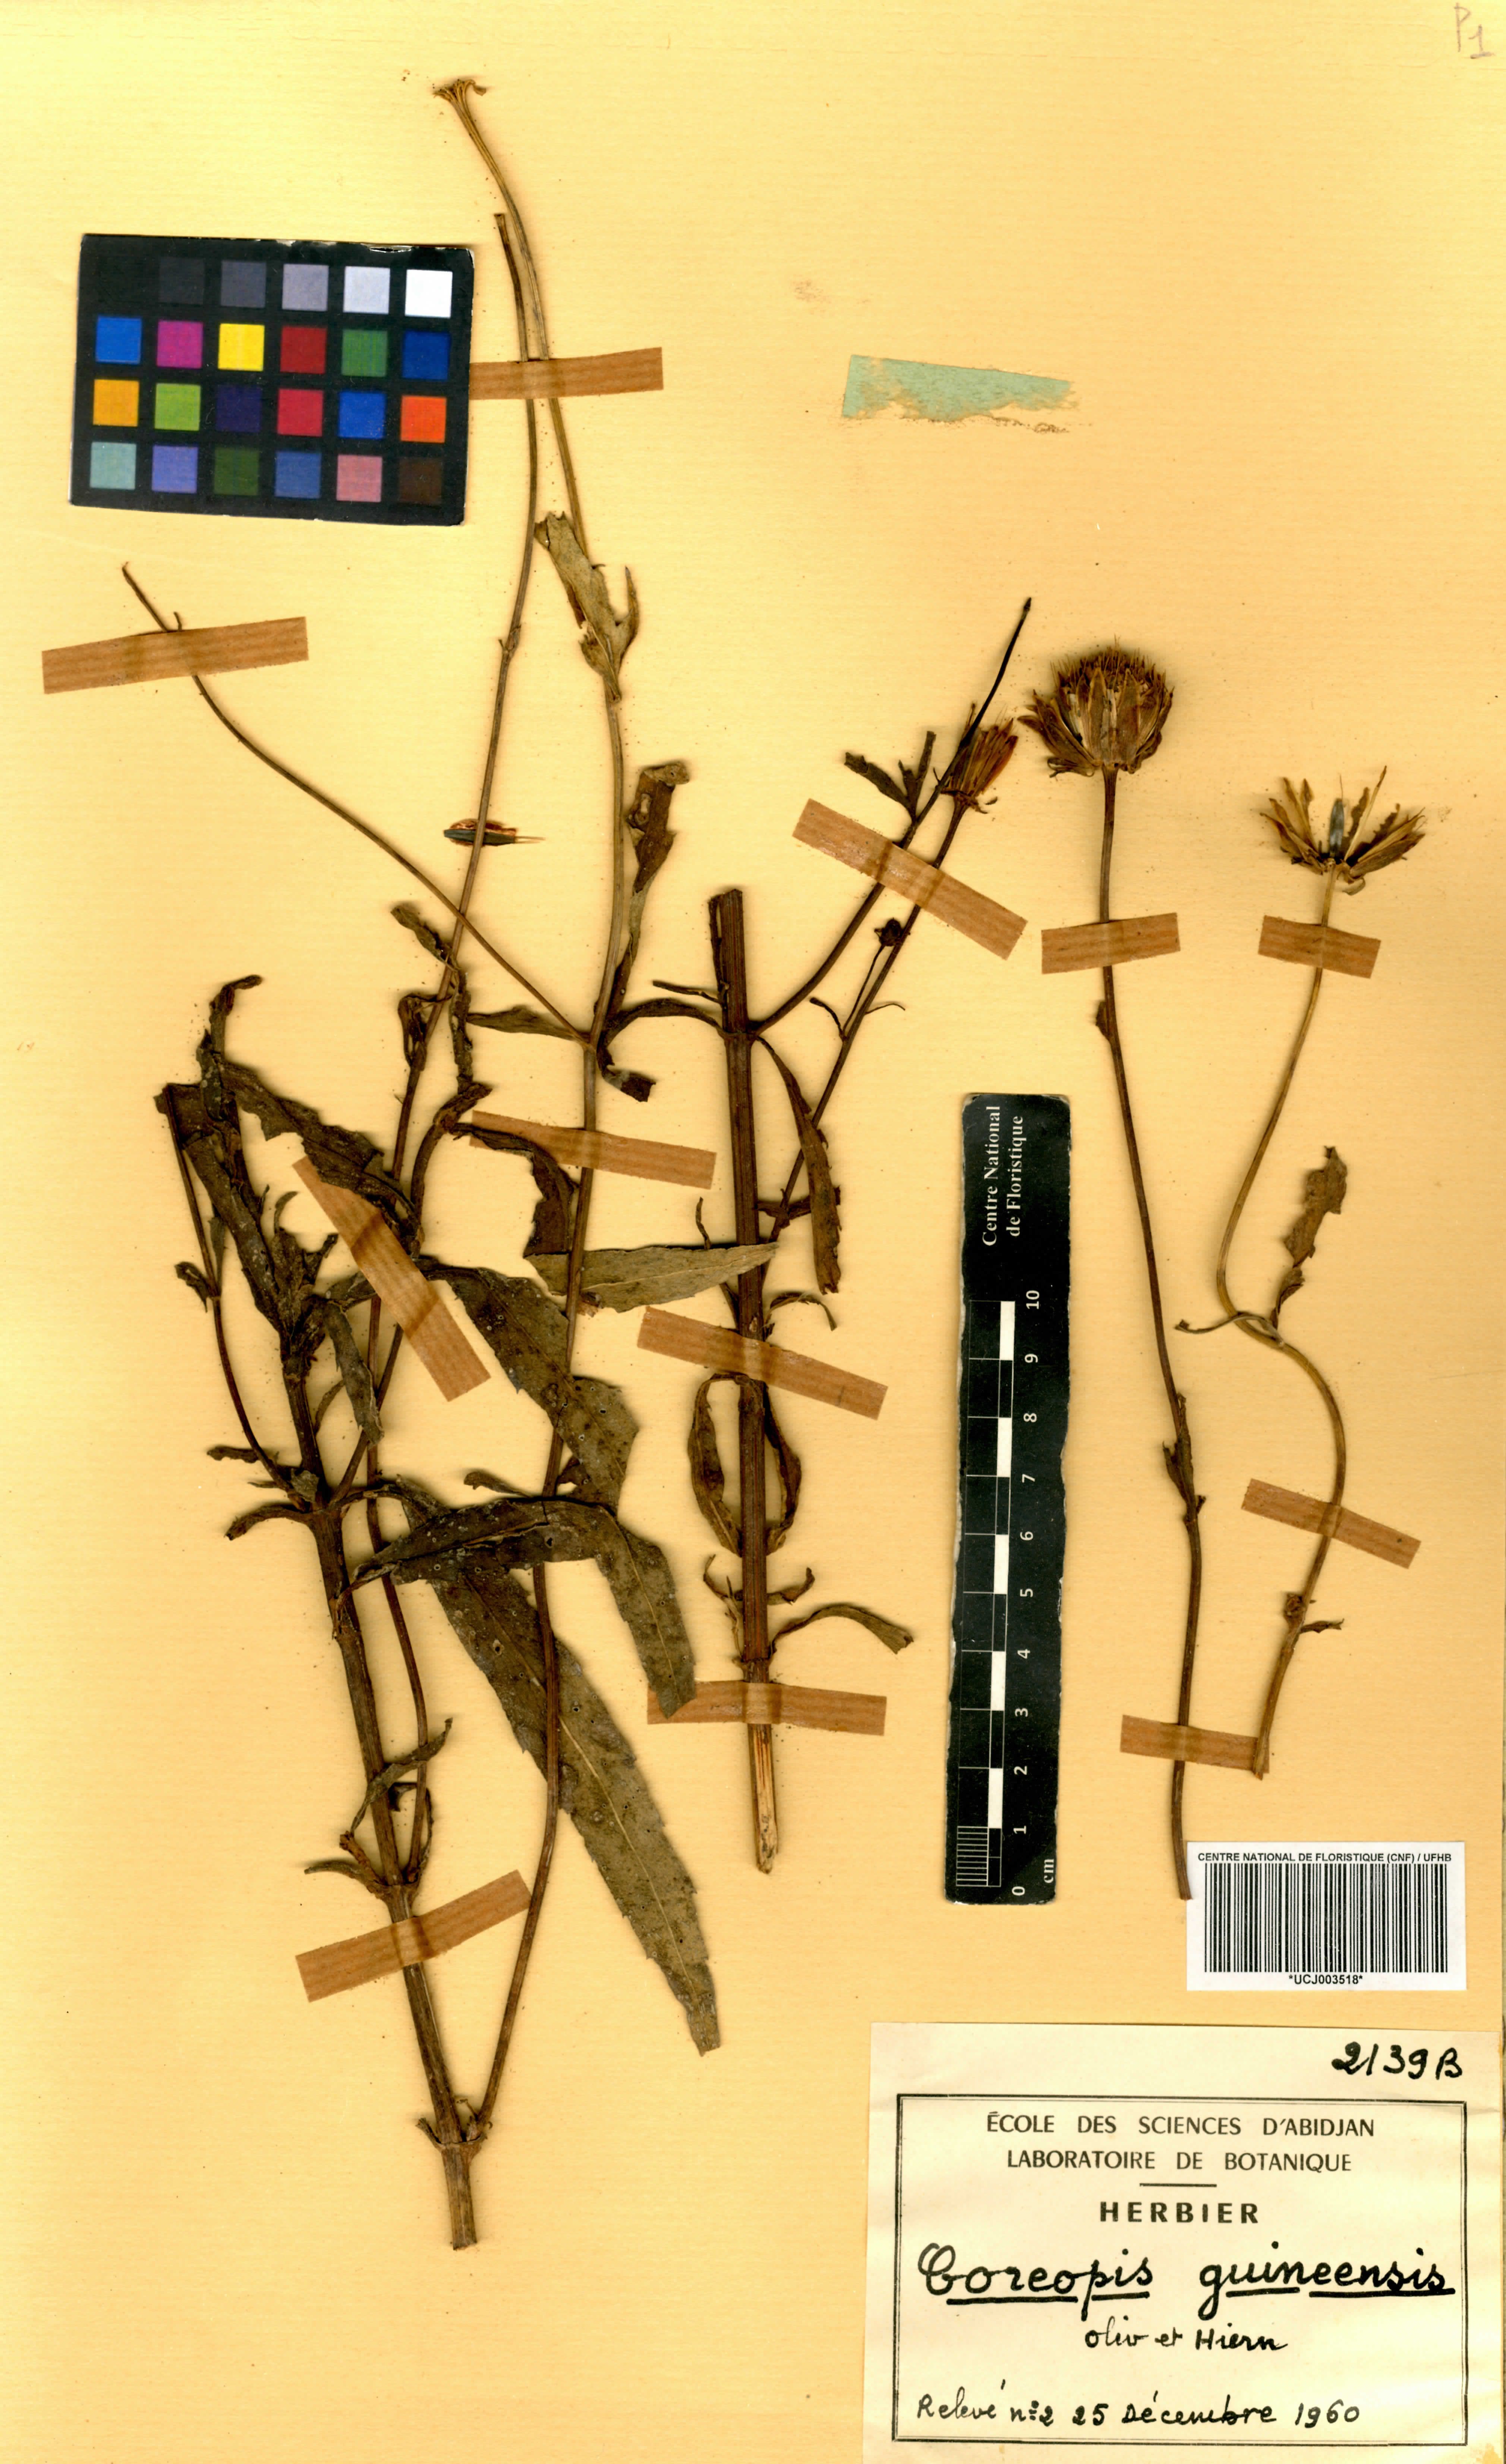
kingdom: Plantae
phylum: Tracheophyta
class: Magnoliopsida
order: Asterales
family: Asteraceae
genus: Bidens
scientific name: Bidens borianiana
